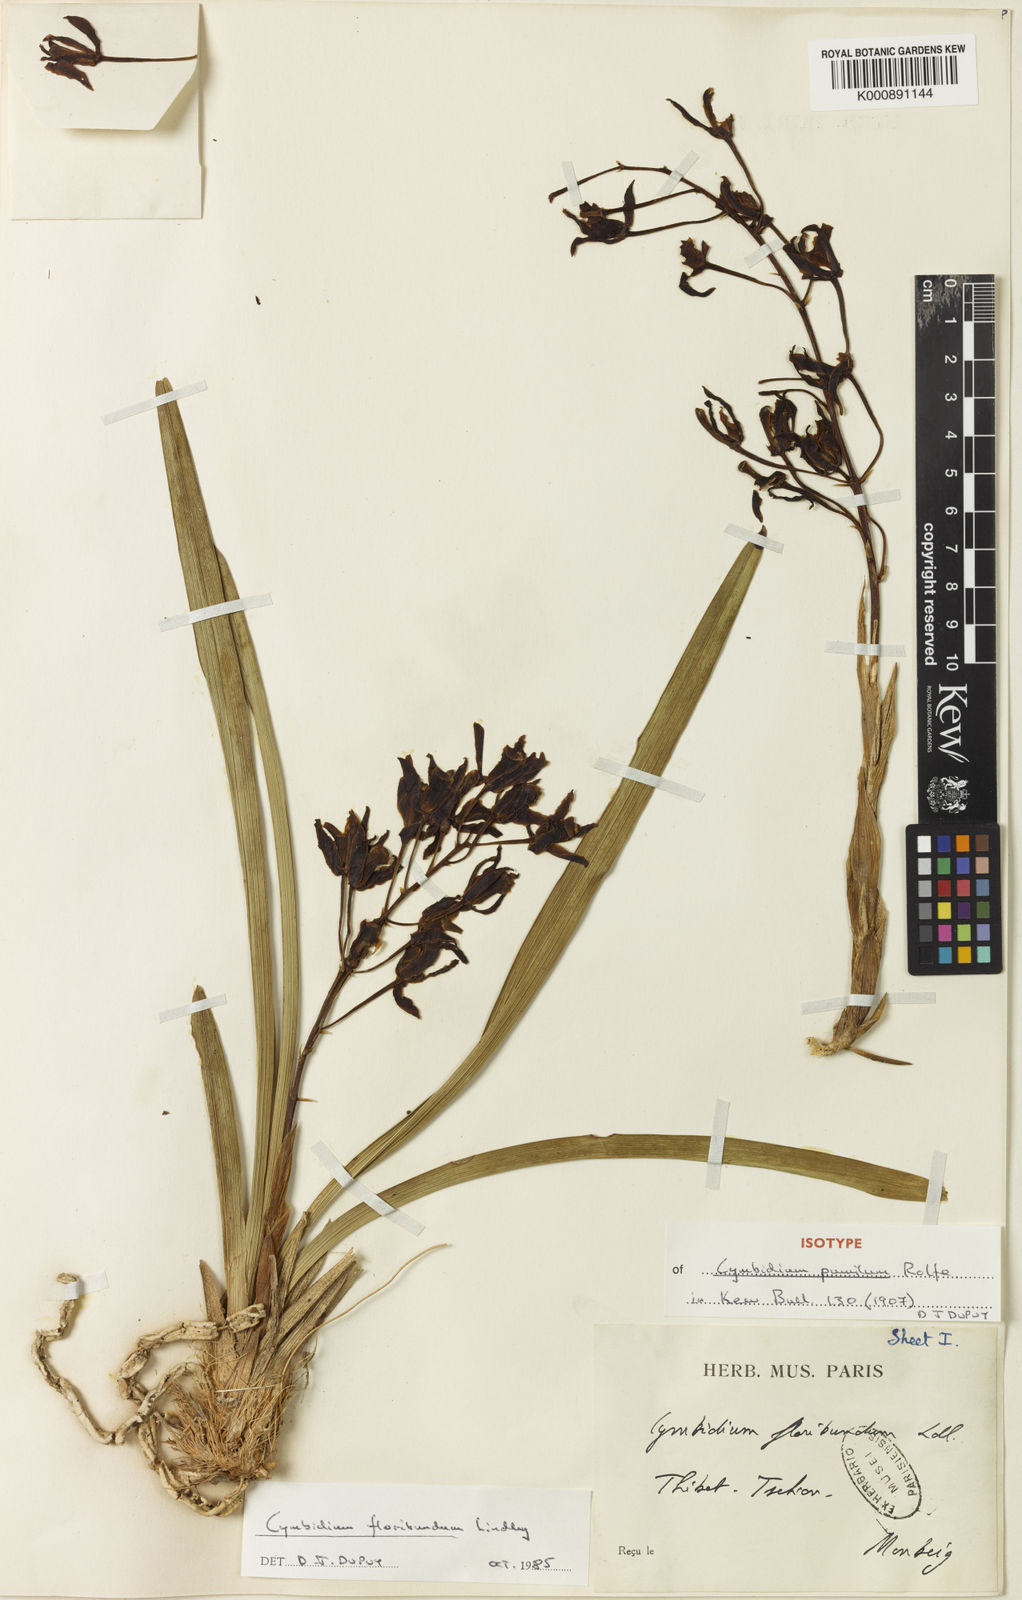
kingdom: Plantae
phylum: Tracheophyta
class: Liliopsida
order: Asparagales
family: Orchidaceae
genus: Cymbidium
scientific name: Cymbidium floribundum
